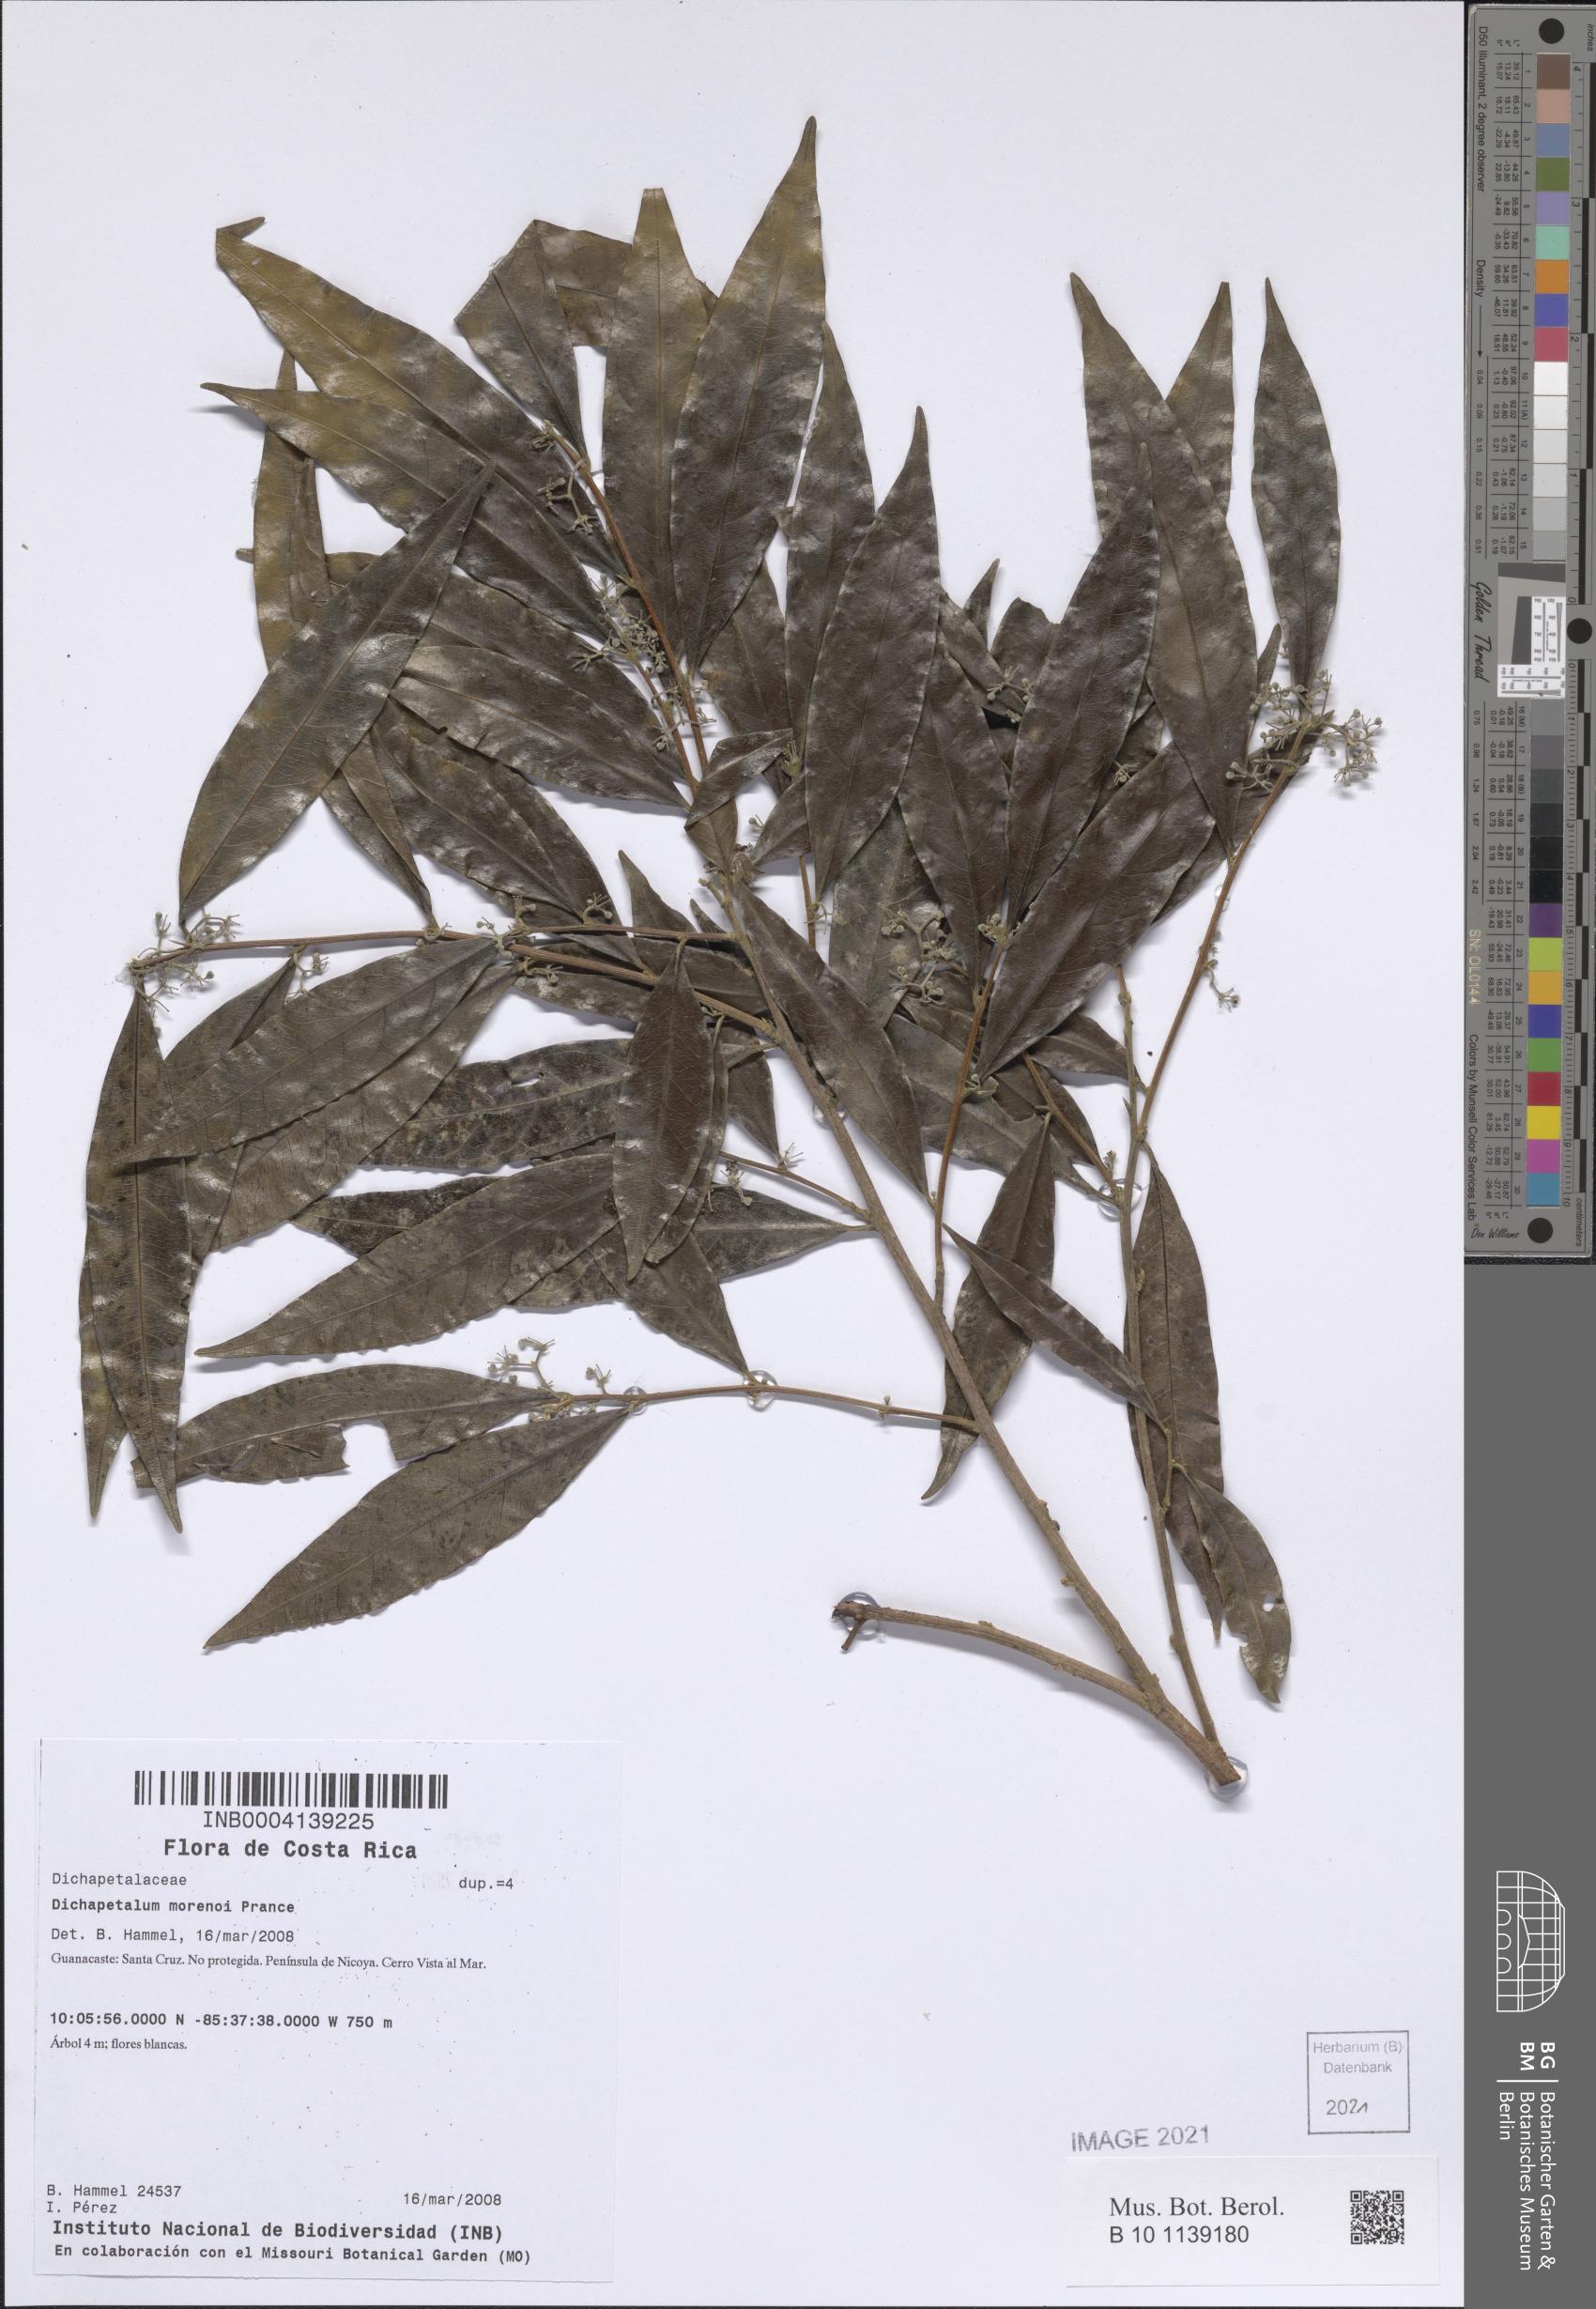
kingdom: Plantae
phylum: Tracheophyta
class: Magnoliopsida
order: Malpighiales
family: Dichapetalaceae
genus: Dichapetalum
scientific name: Dichapetalum morenoi
